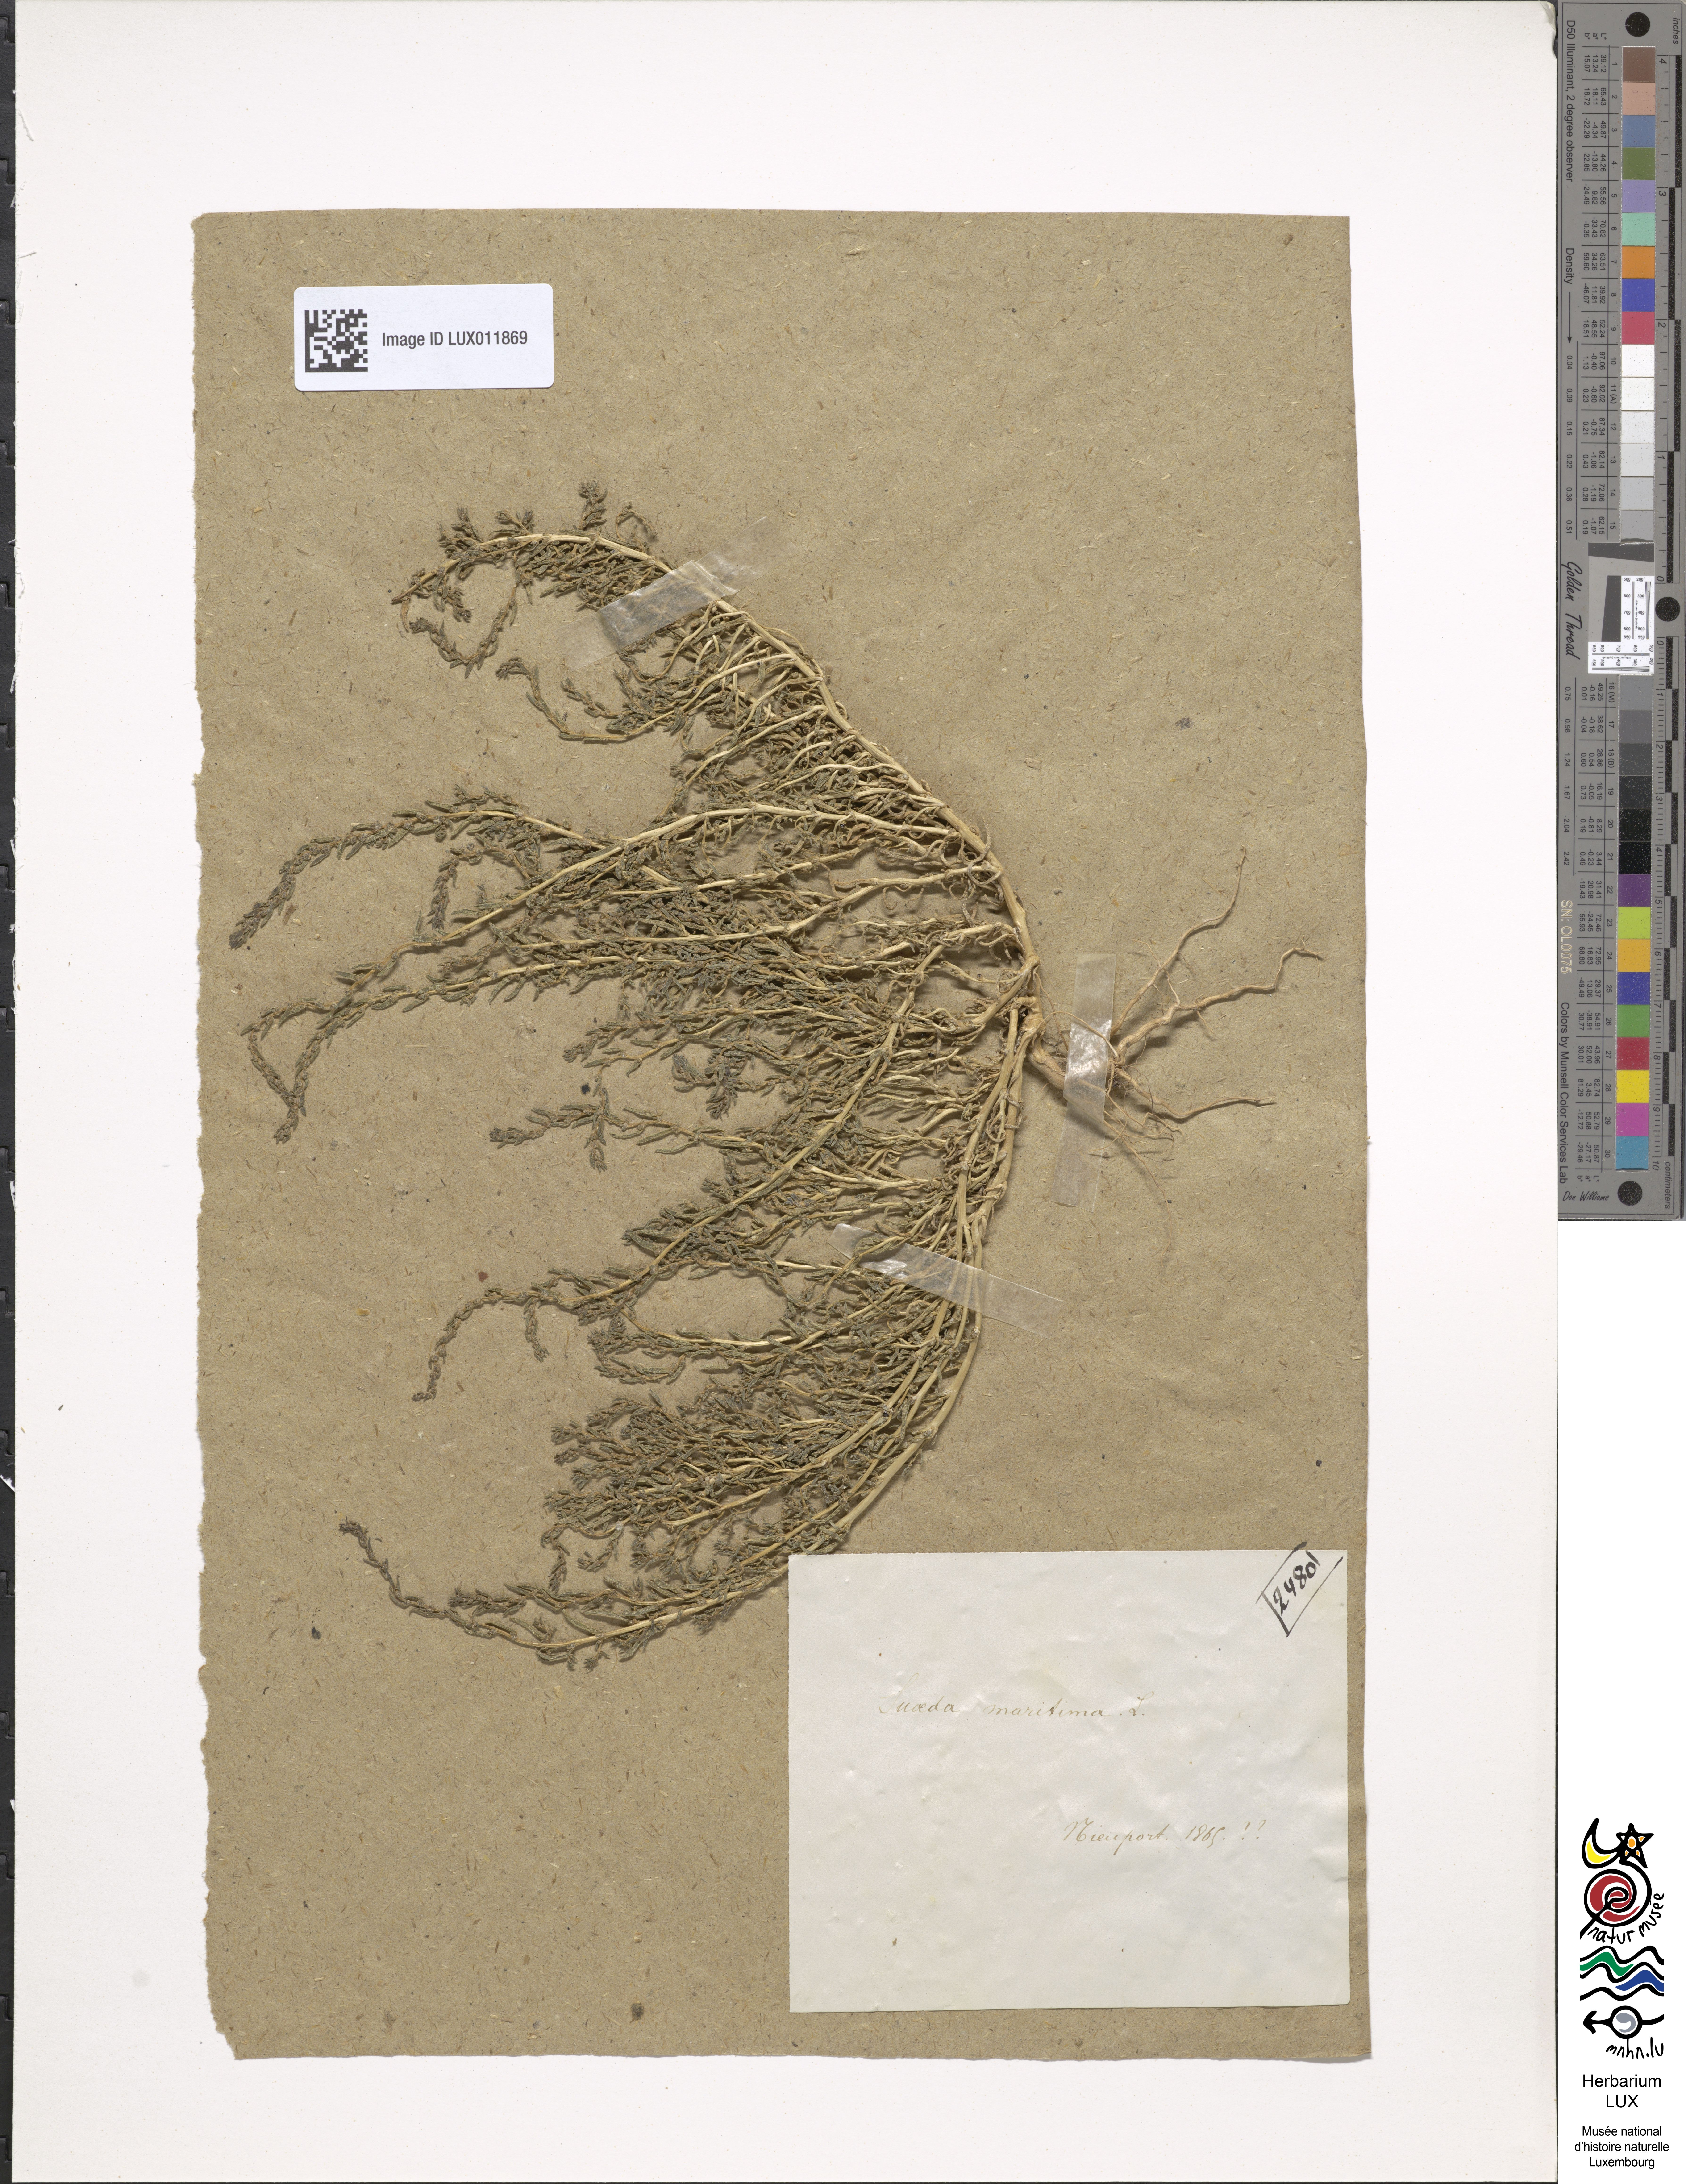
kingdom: Plantae
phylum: Tracheophyta
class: Magnoliopsida
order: Caryophyllales
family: Amaranthaceae
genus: Suaeda
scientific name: Suaeda maritima
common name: Annual sea-blite
